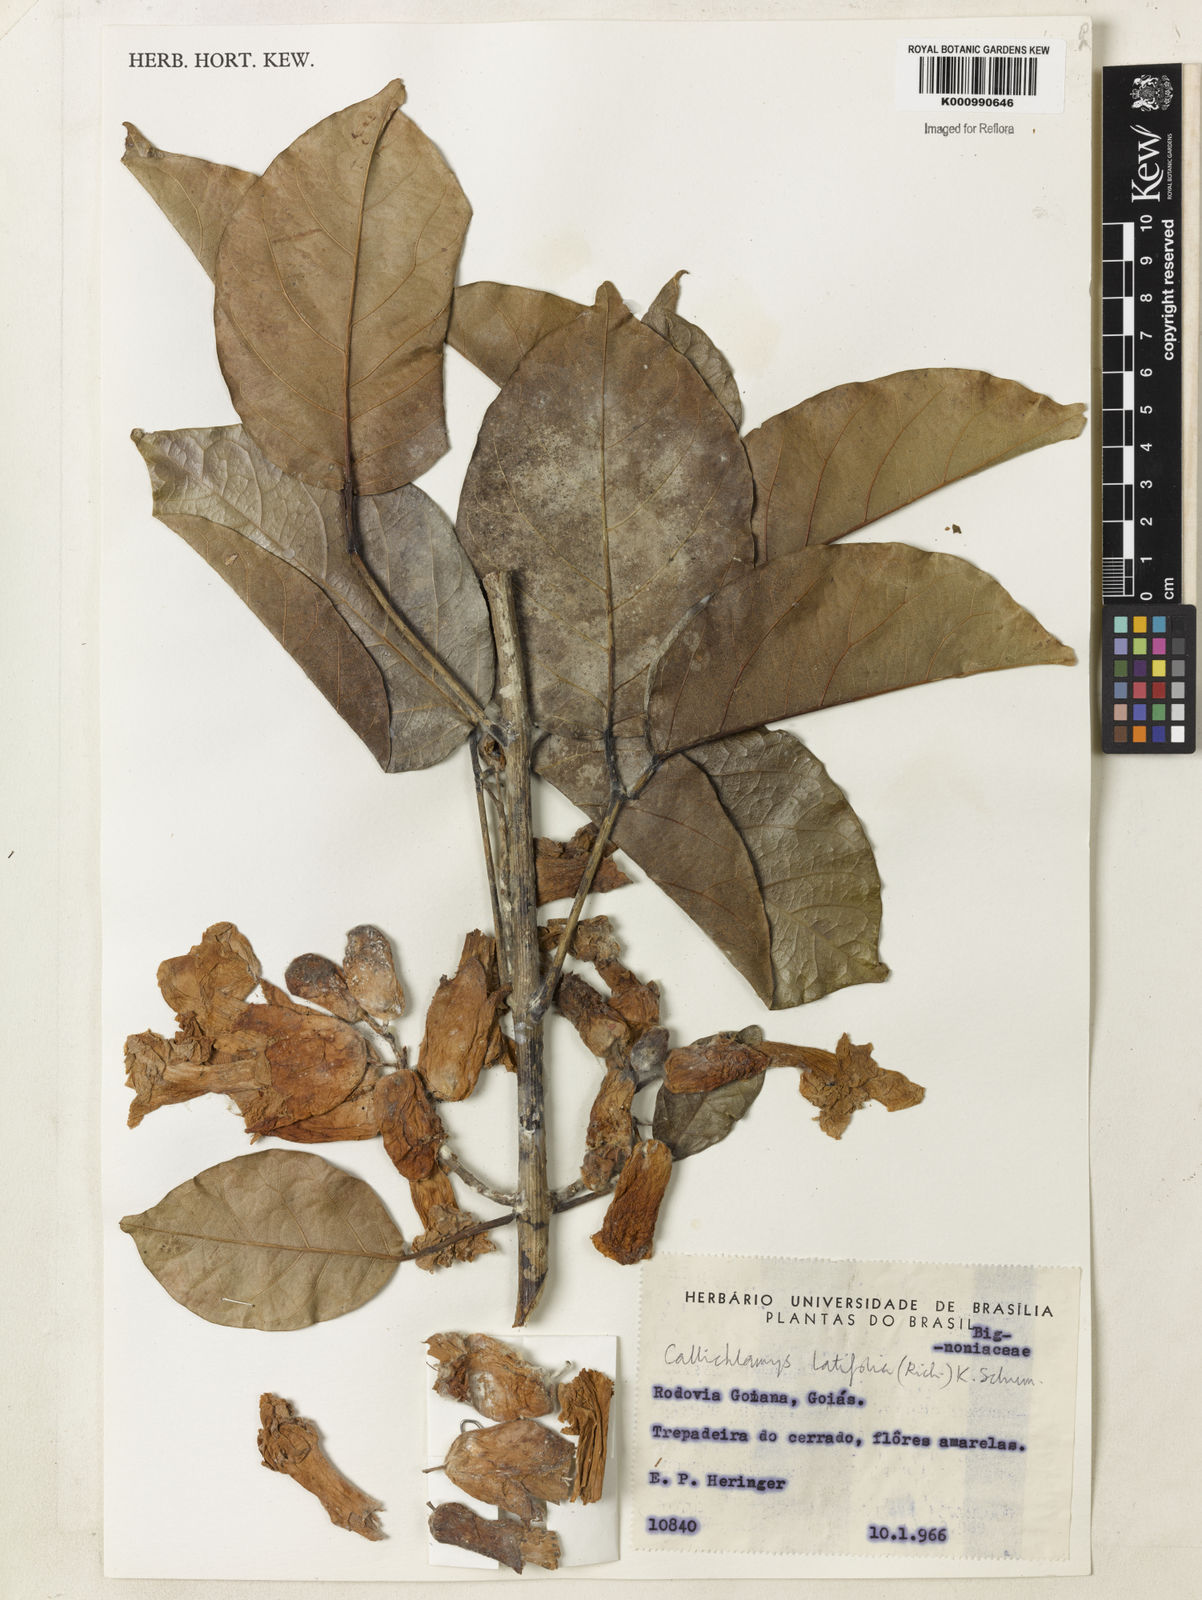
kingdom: Plantae
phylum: Tracheophyta
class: Magnoliopsida
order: Lamiales
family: Bignoniaceae
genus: Callichlamys
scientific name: Callichlamys latifolia
